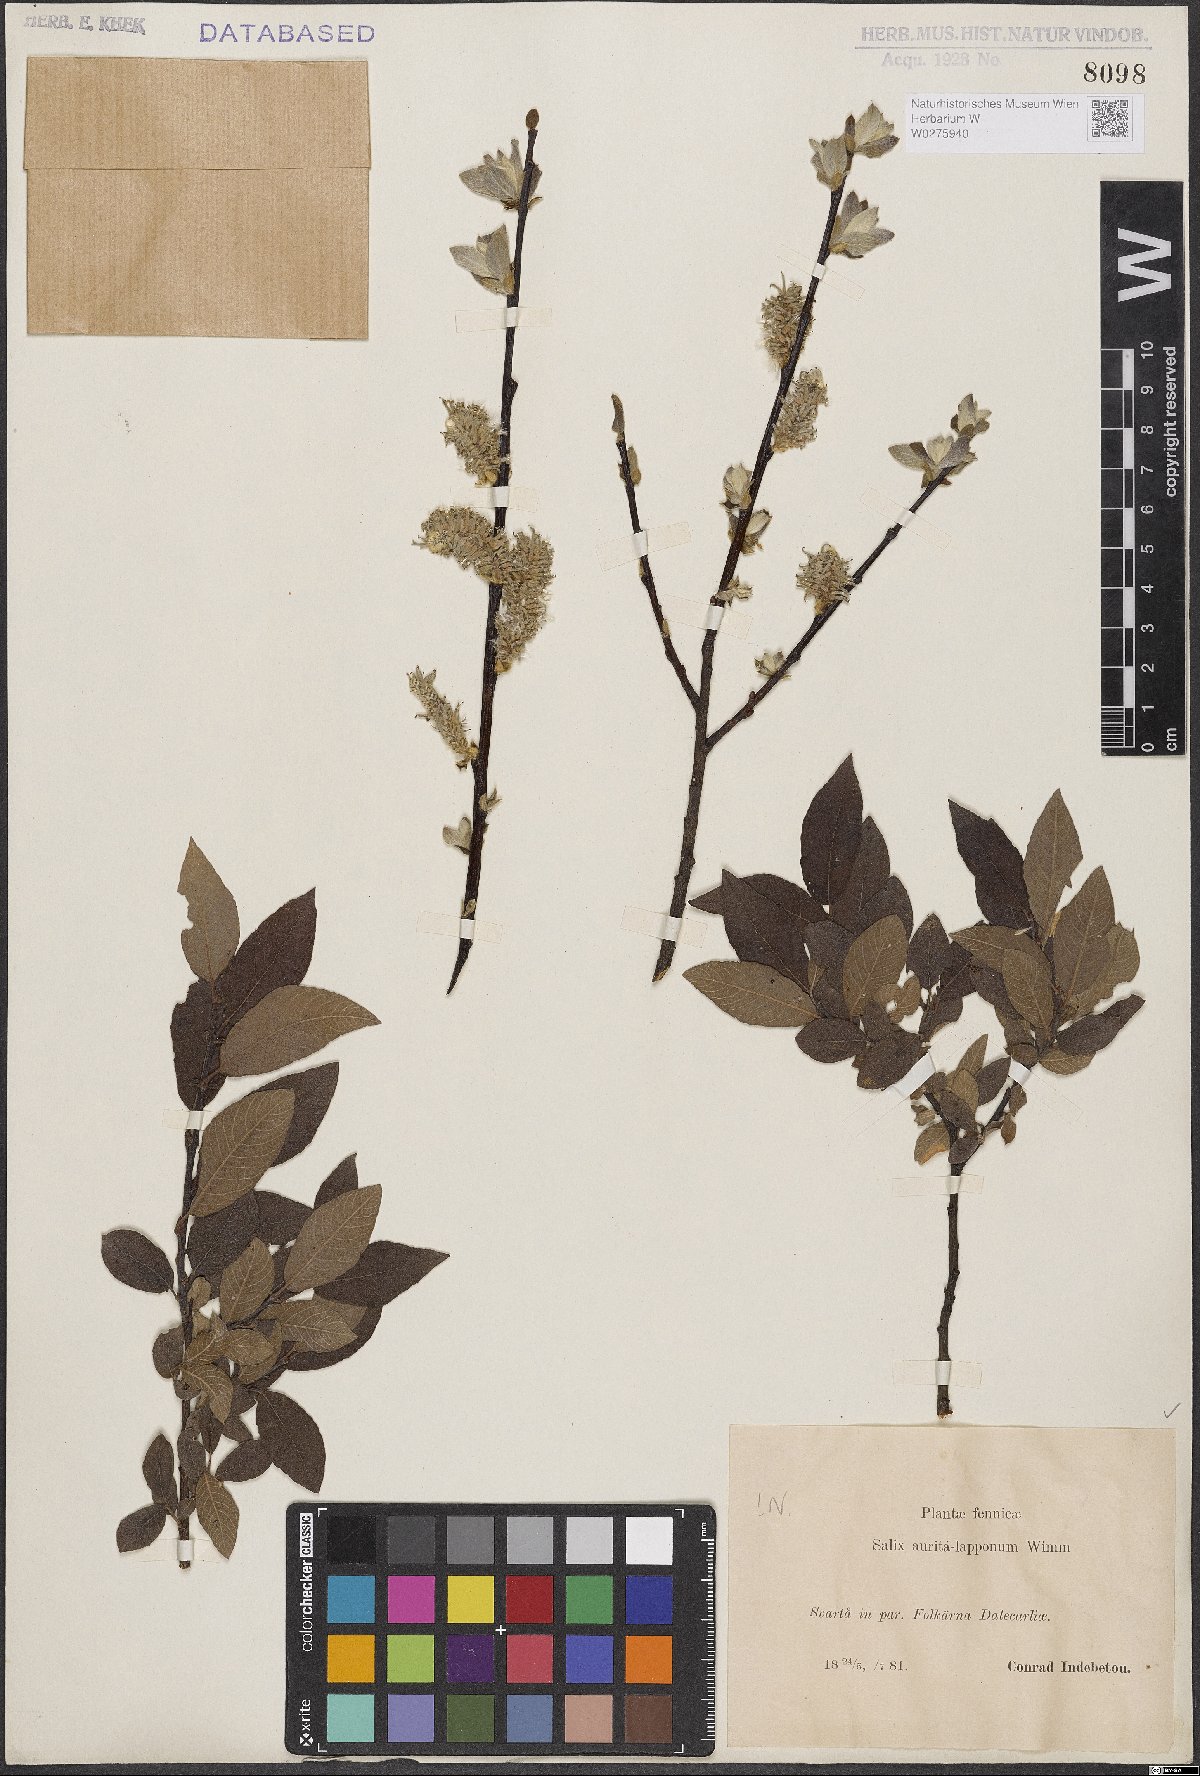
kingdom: Plantae
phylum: Tracheophyta
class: Magnoliopsida
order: Malpighiales
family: Salicaceae
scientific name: Salicaceae
